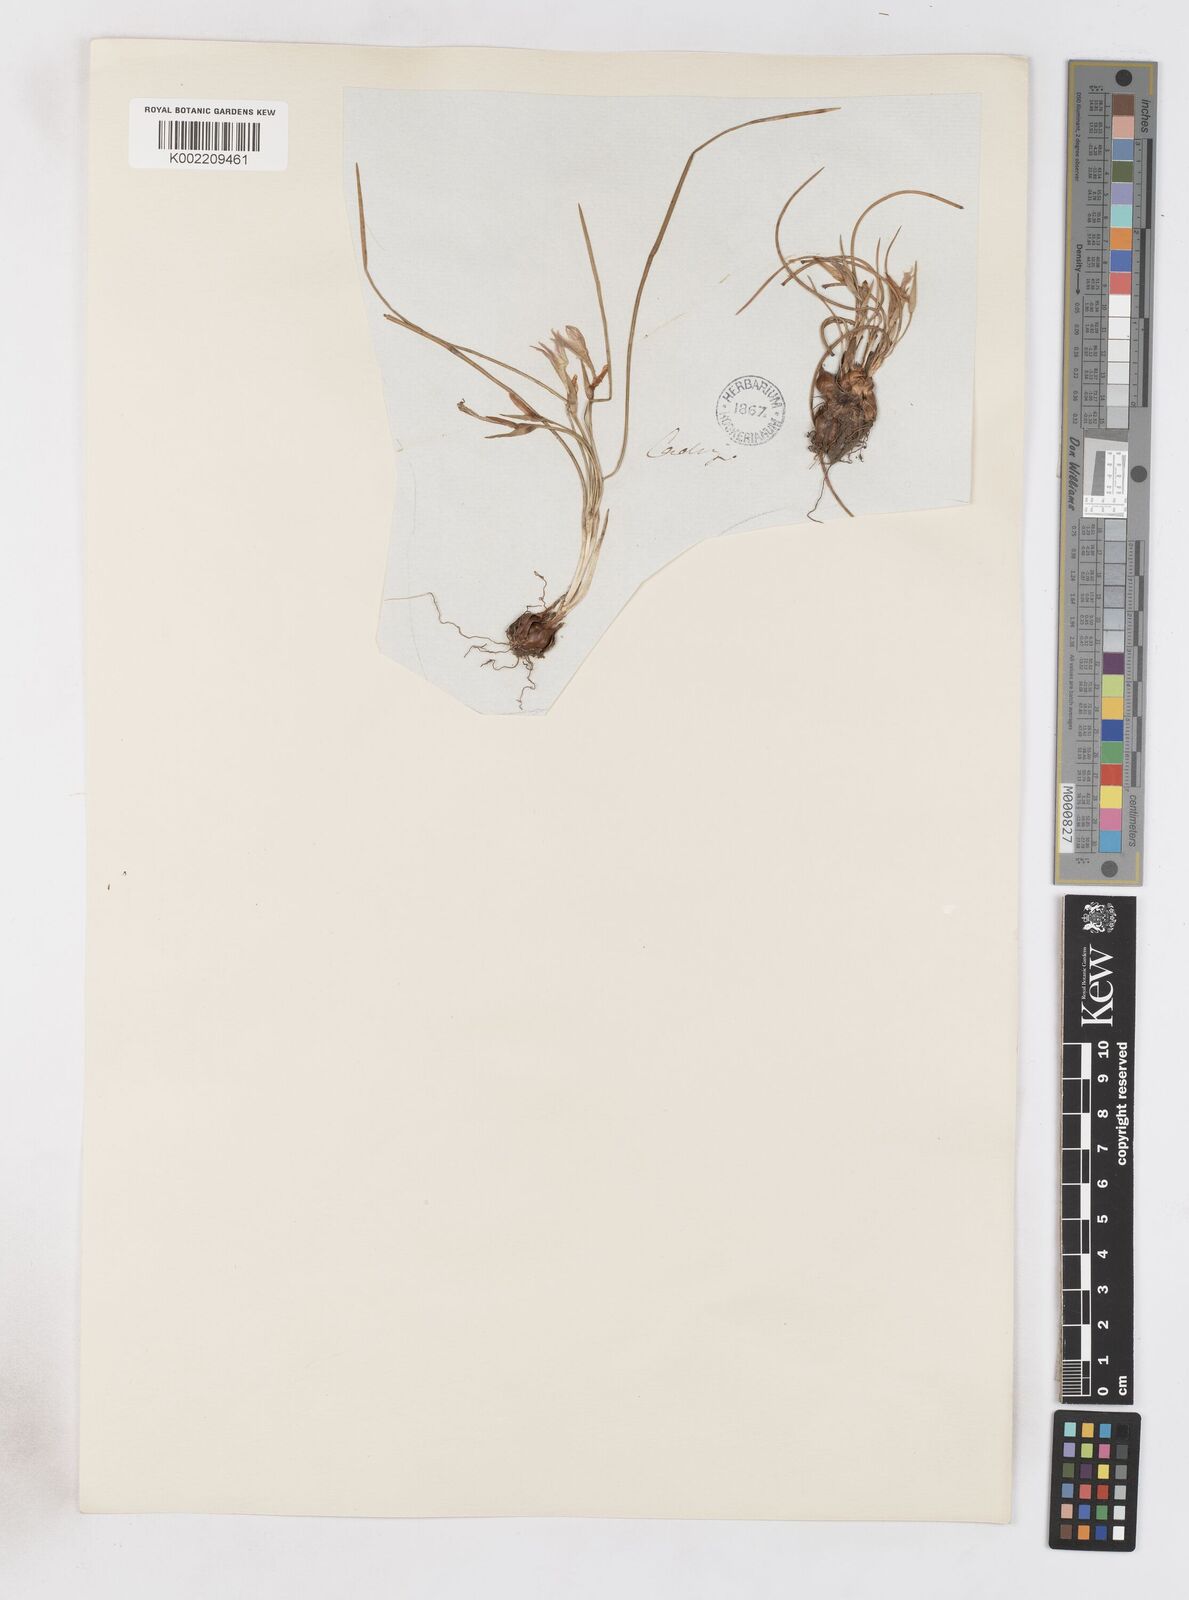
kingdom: Plantae
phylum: Tracheophyta
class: Liliopsida
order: Asparagales
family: Iridaceae
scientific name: Iridaceae
